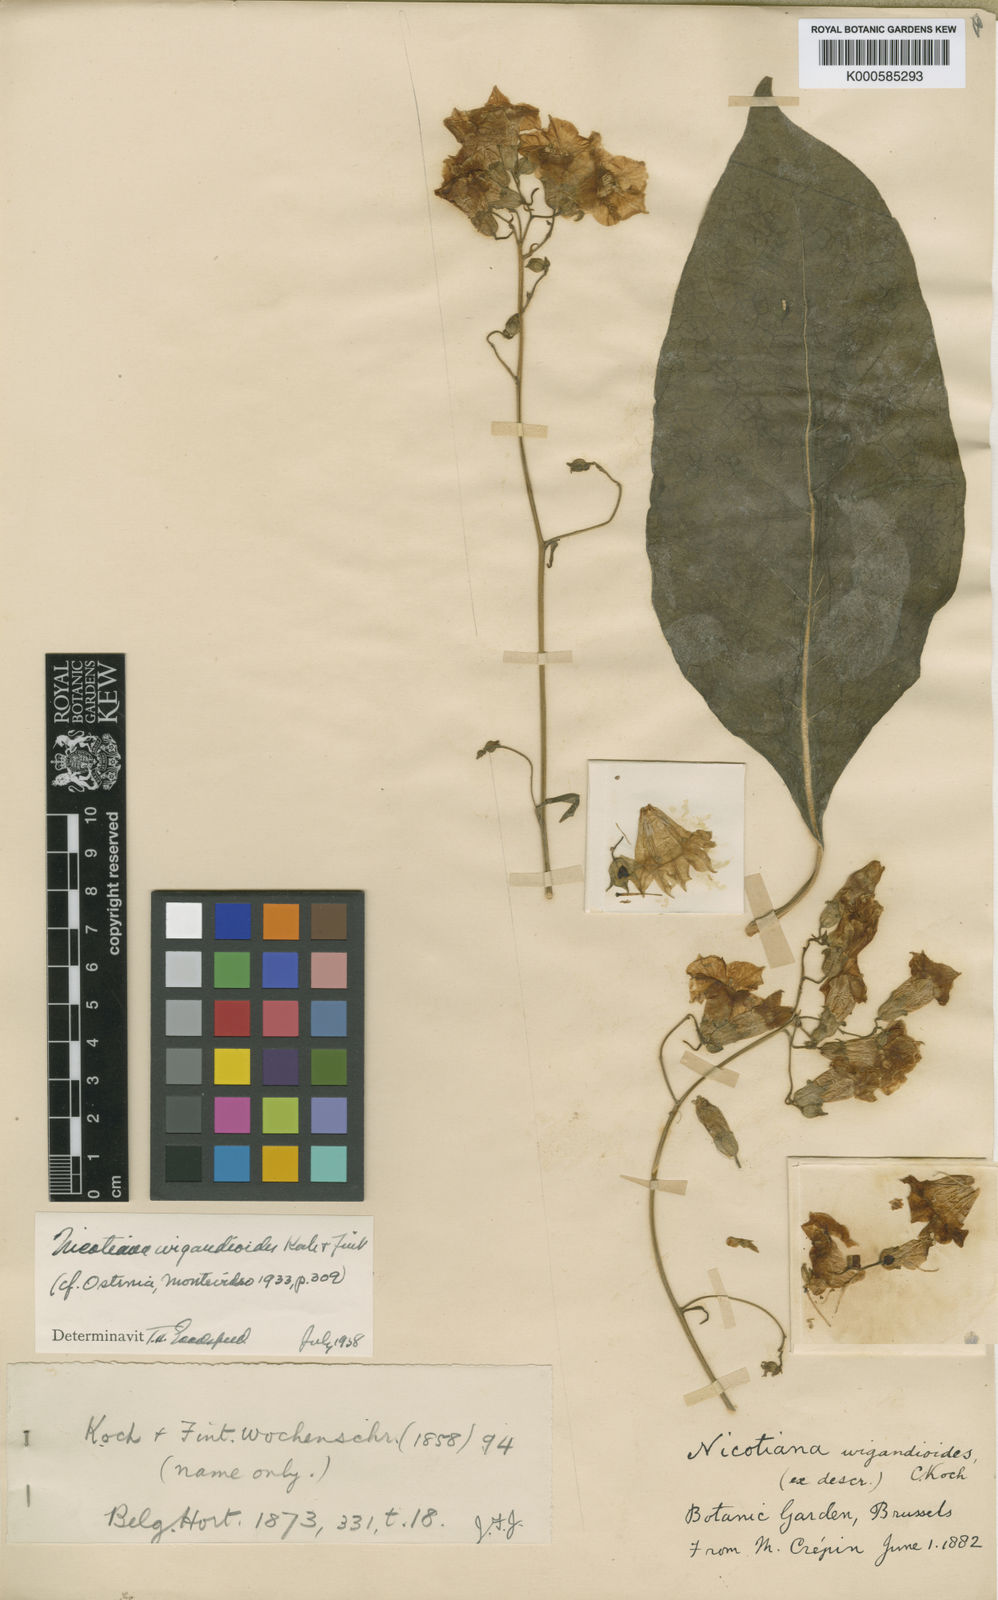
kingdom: Plantae
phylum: Tracheophyta
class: Magnoliopsida
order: Solanales
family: Solanaceae
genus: Nicotiana
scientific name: Nicotiana wigandioides
